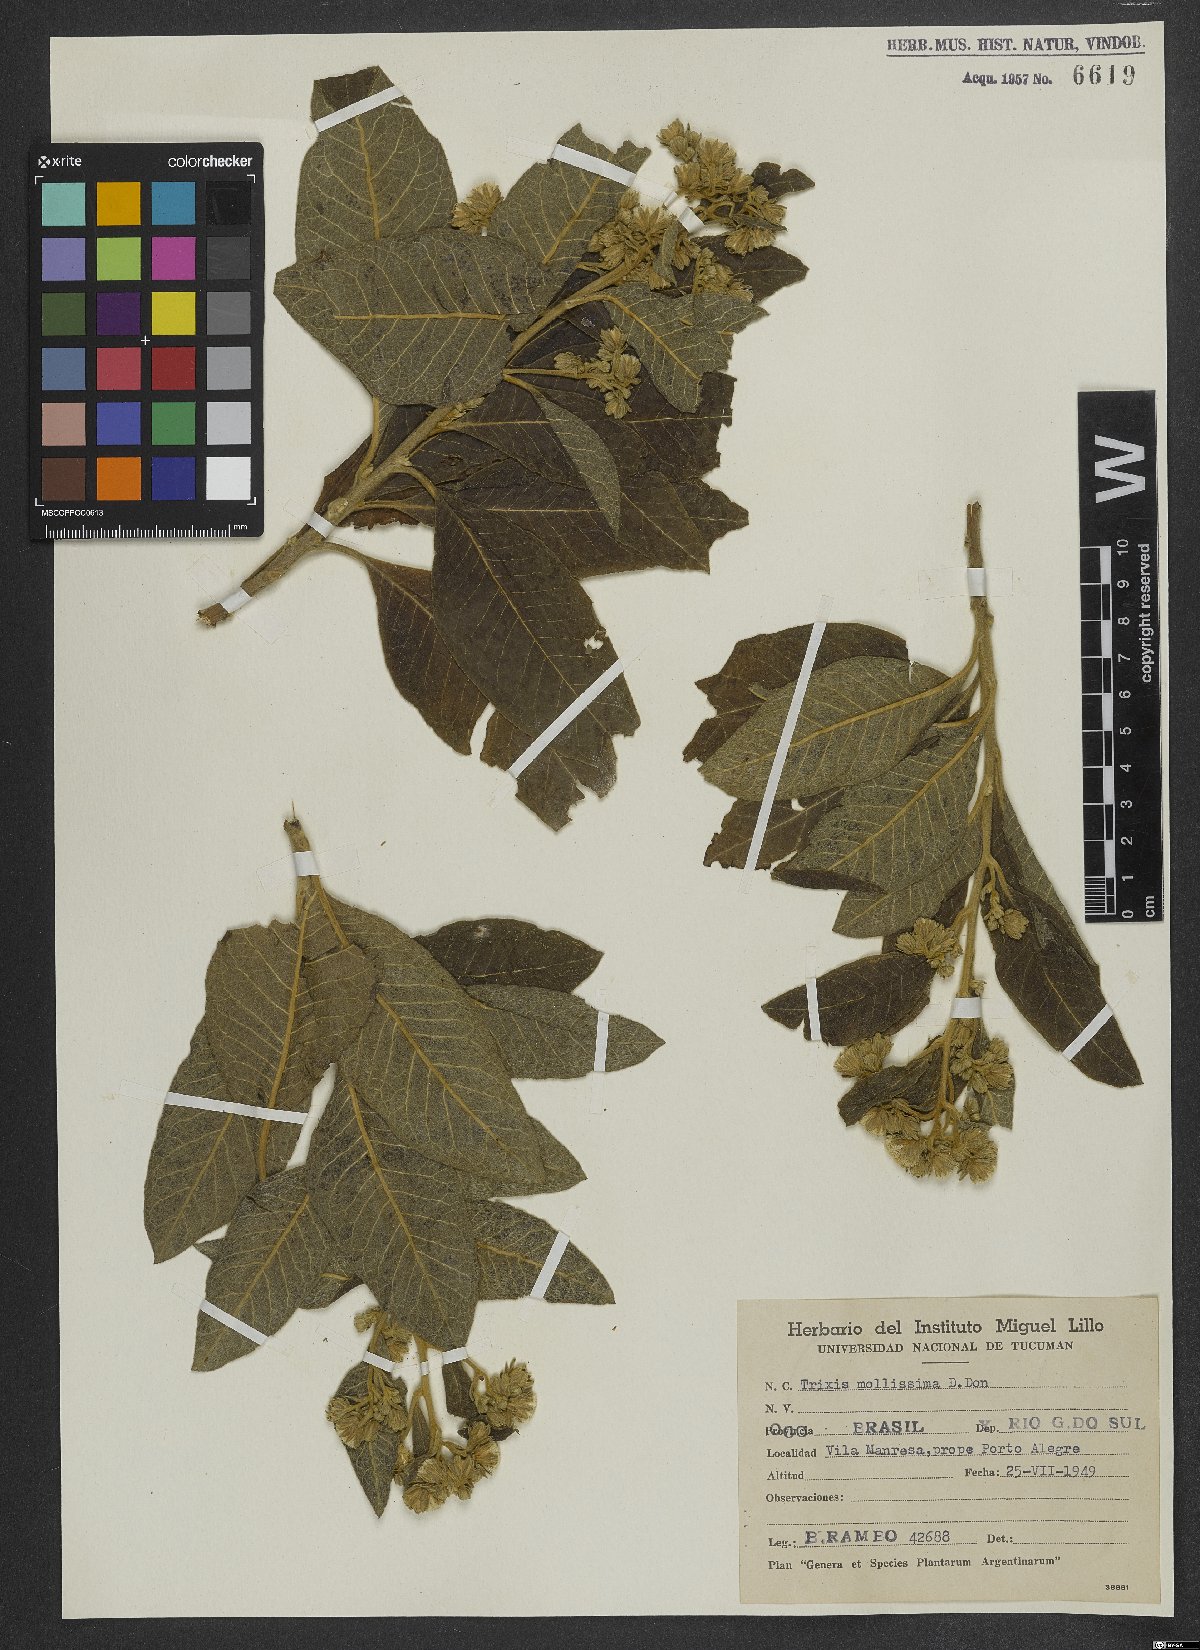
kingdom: Plantae
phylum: Tracheophyta
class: Magnoliopsida
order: Asterales
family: Asteraceae
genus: Trixis
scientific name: Trixis praestans
